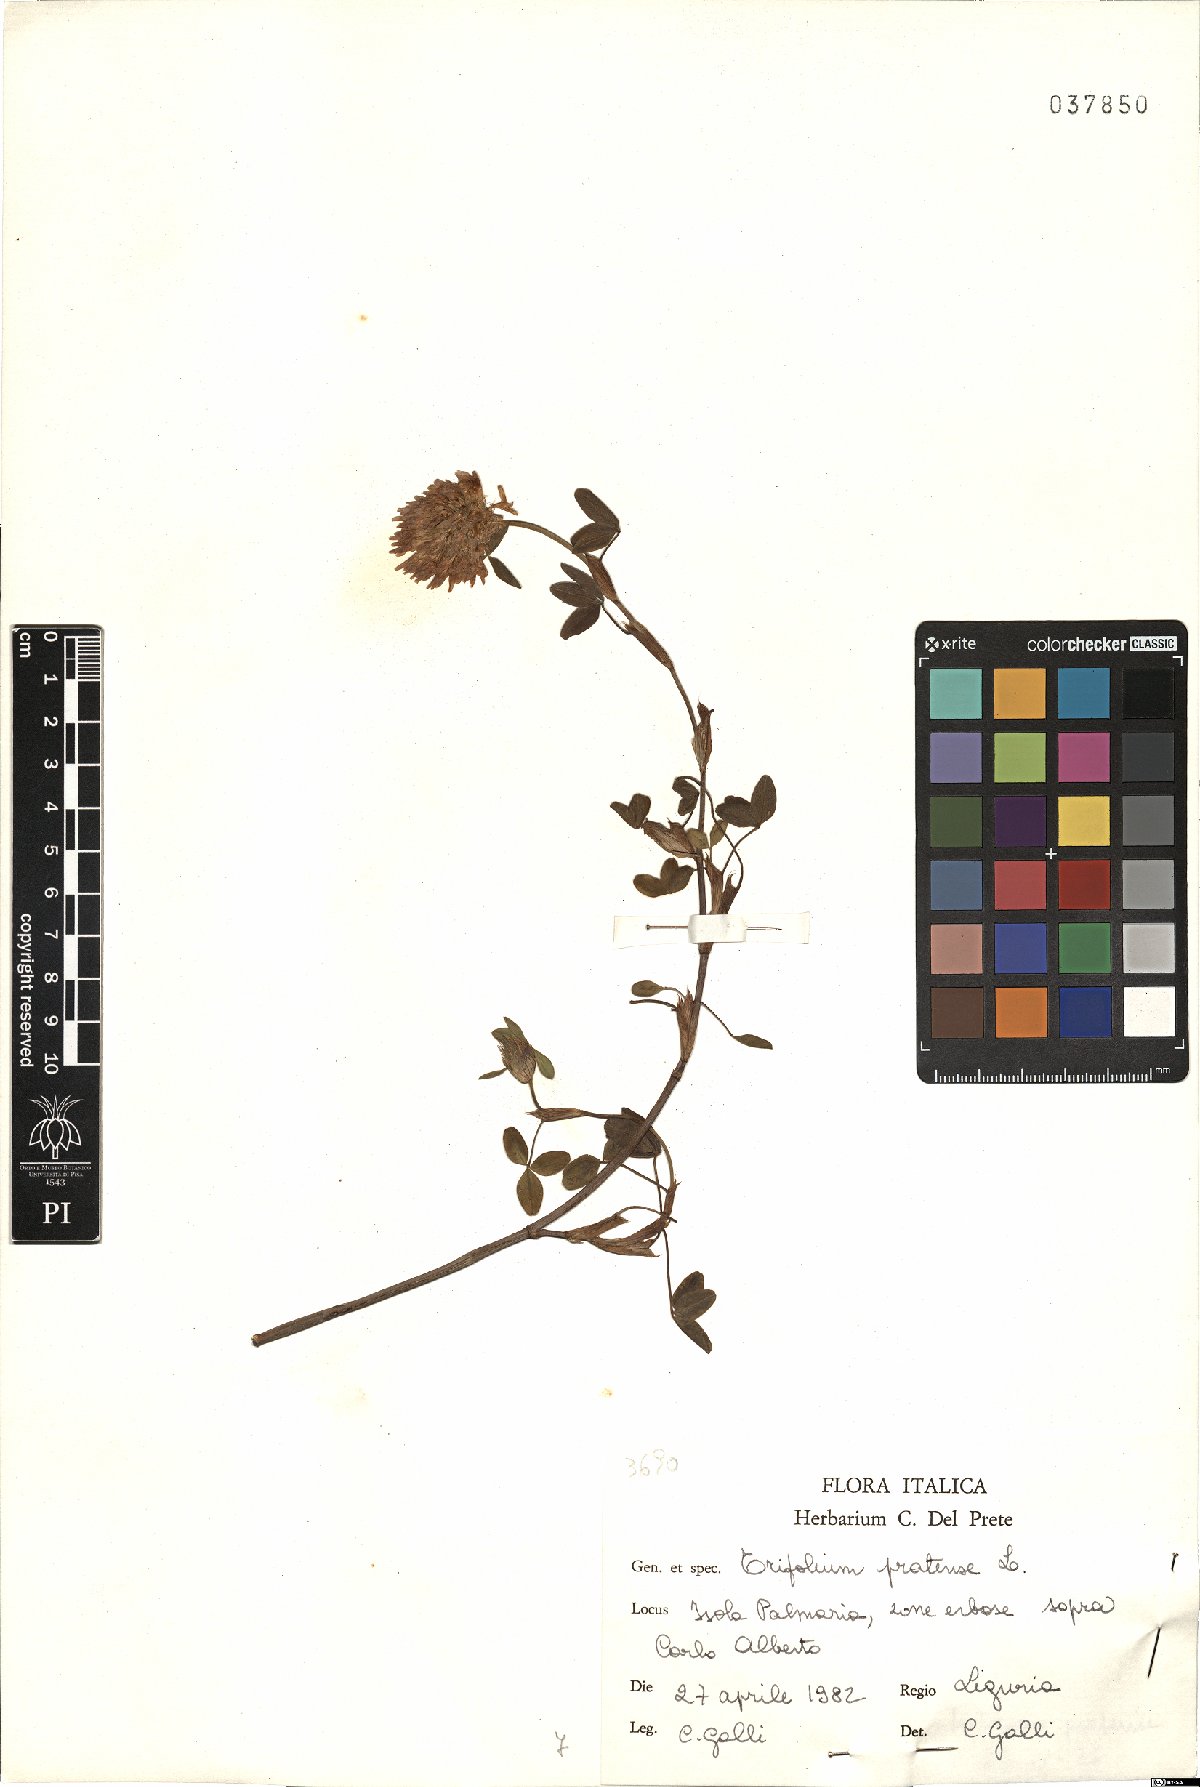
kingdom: Plantae
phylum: Tracheophyta
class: Magnoliopsida
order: Fabales
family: Fabaceae
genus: Trifolium
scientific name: Trifolium pratense
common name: Red clover
